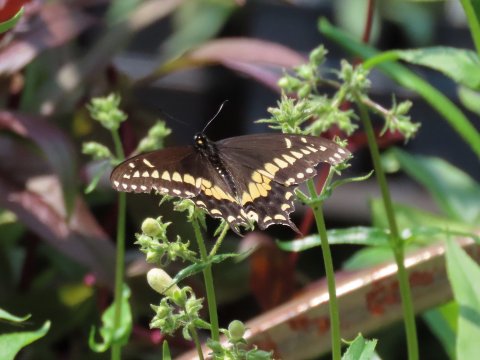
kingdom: Animalia
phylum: Arthropoda
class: Insecta
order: Lepidoptera
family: Papilionidae
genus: Papilio
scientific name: Papilio polyxenes
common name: Black Swallowtail
